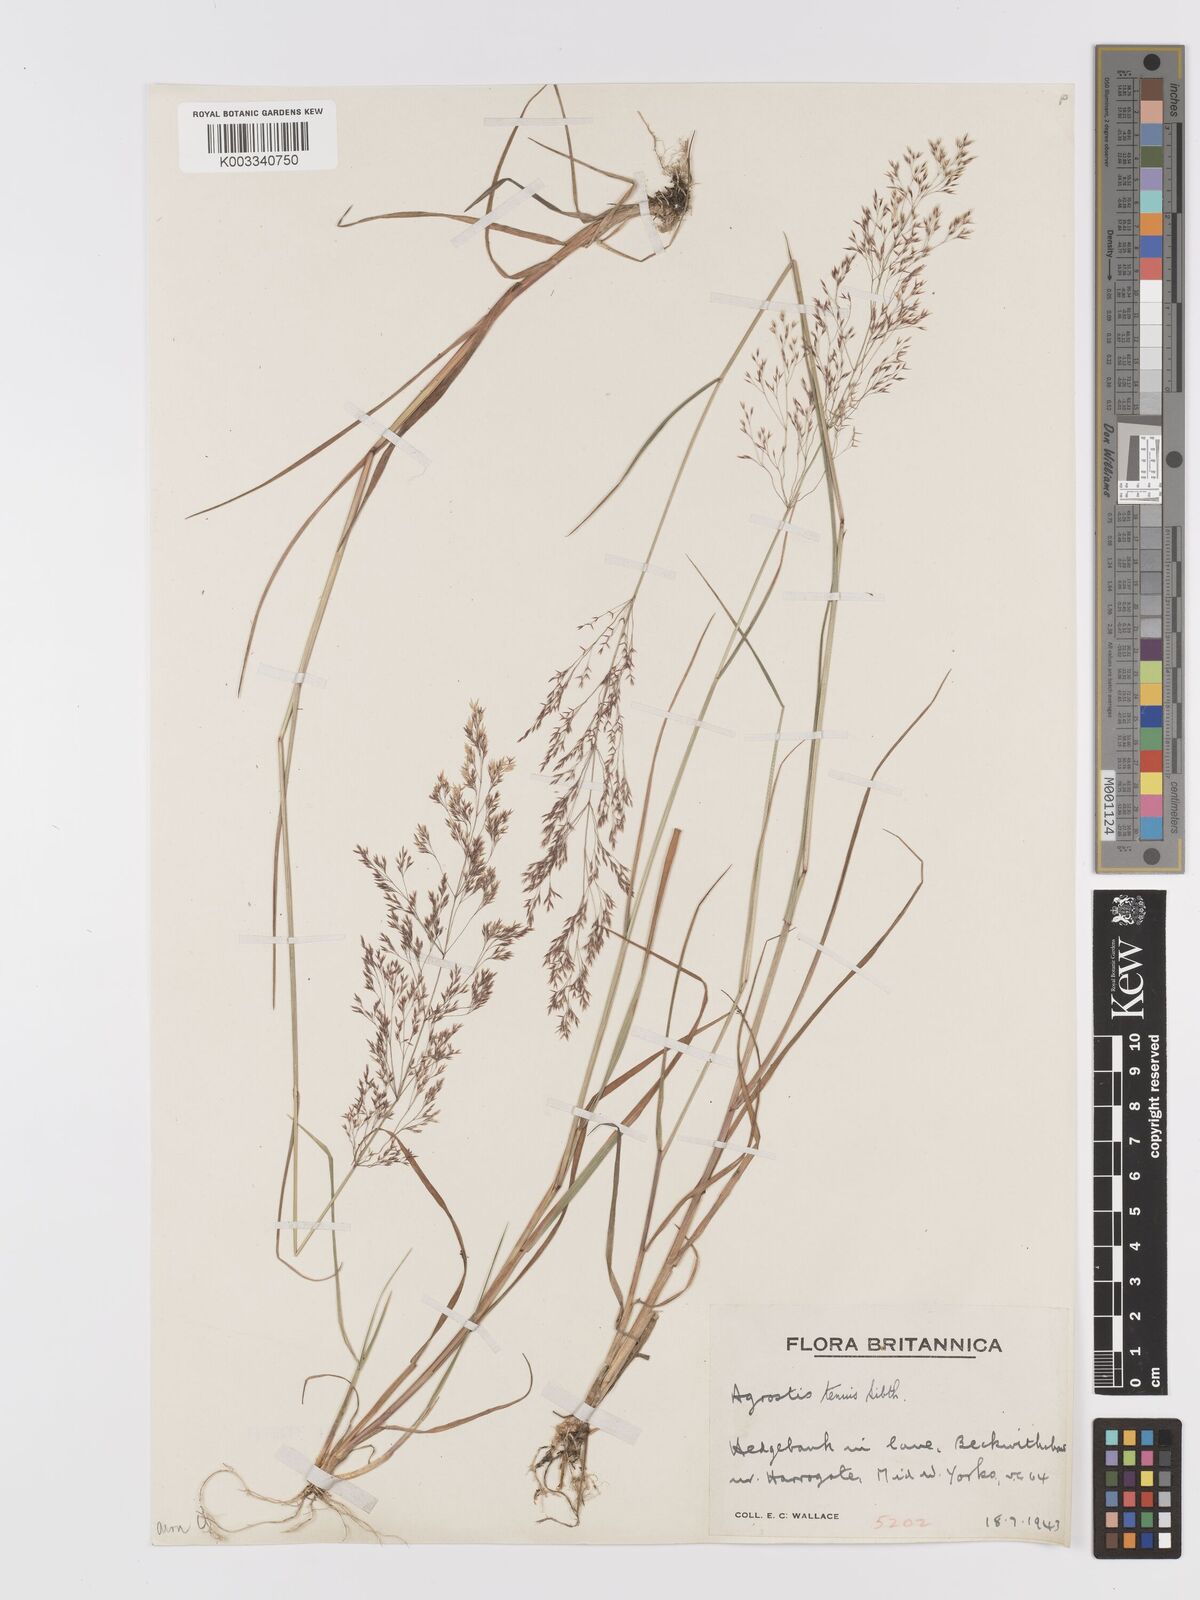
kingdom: Plantae
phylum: Tracheophyta
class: Liliopsida
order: Poales
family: Poaceae
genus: Agrostis
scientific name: Agrostis capillaris
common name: Colonial bentgrass
